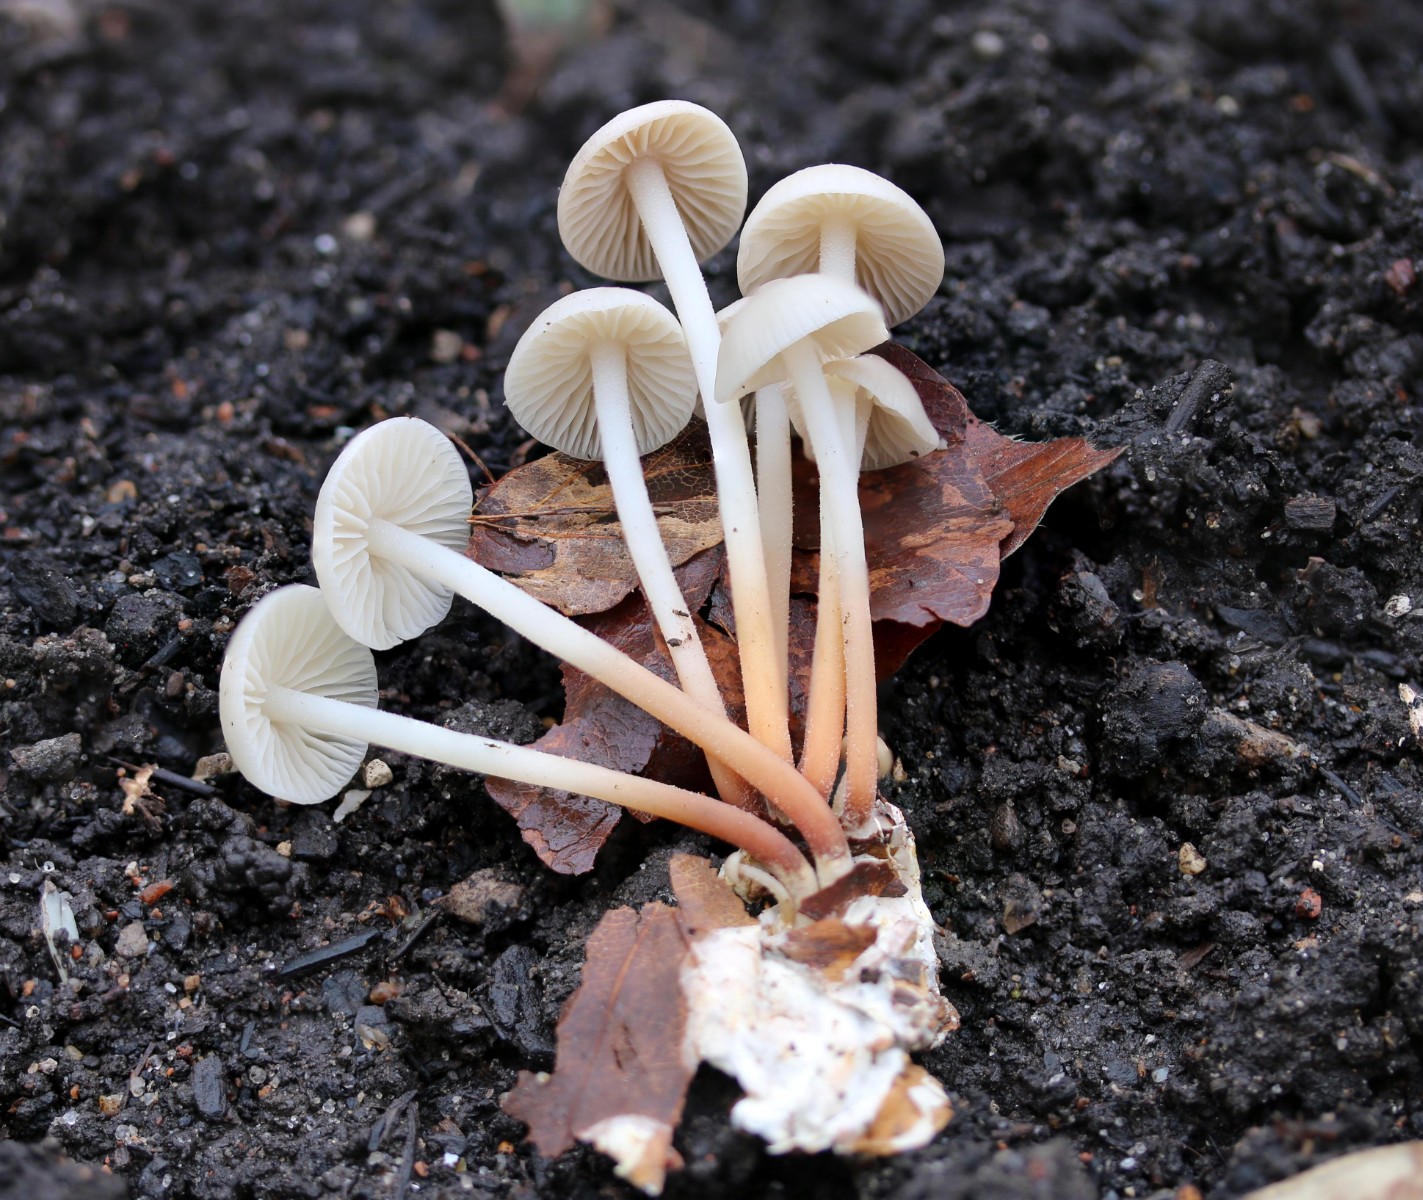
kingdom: Fungi
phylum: Basidiomycota
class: Agaricomycetes
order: Agaricales
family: Marasmiaceae
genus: Marasmius
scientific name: Marasmius wynneae
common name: hvælvet bruskhat
